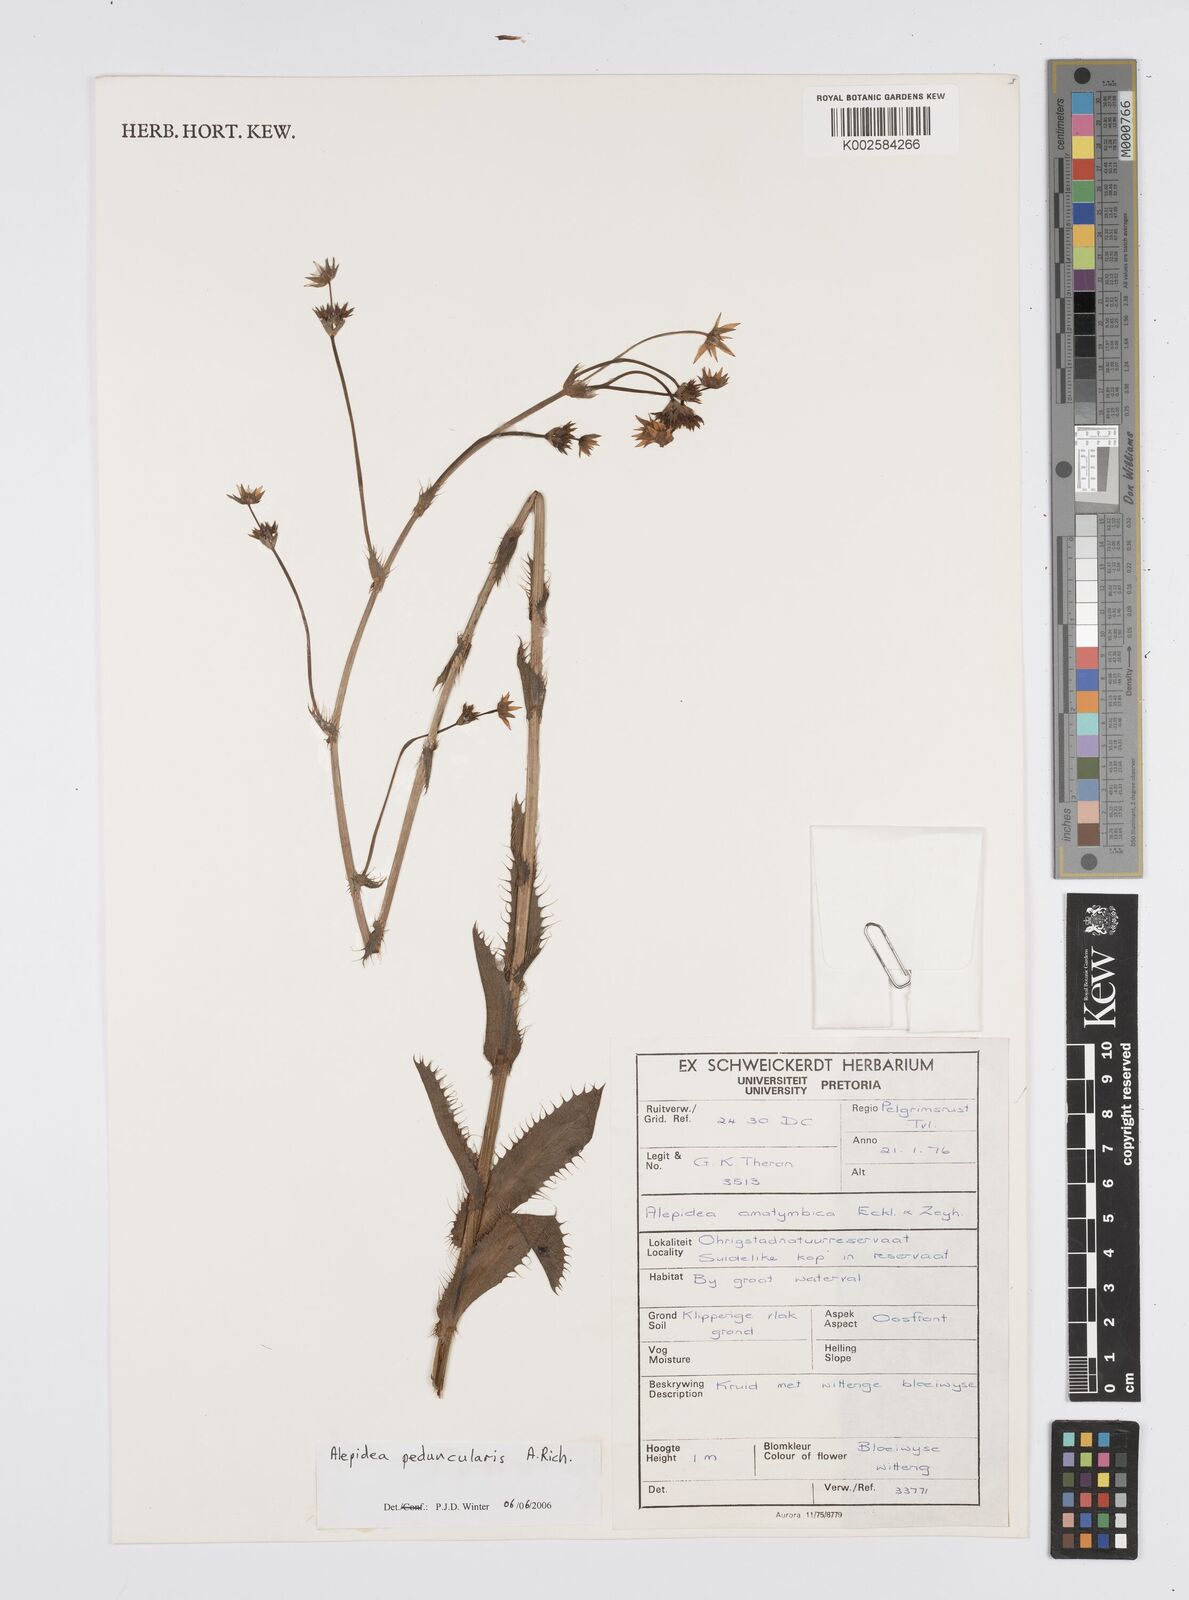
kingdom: Plantae
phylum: Tracheophyta
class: Magnoliopsida
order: Apiales
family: Apiaceae
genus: Alepidea
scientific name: Alepidea peduncularis
